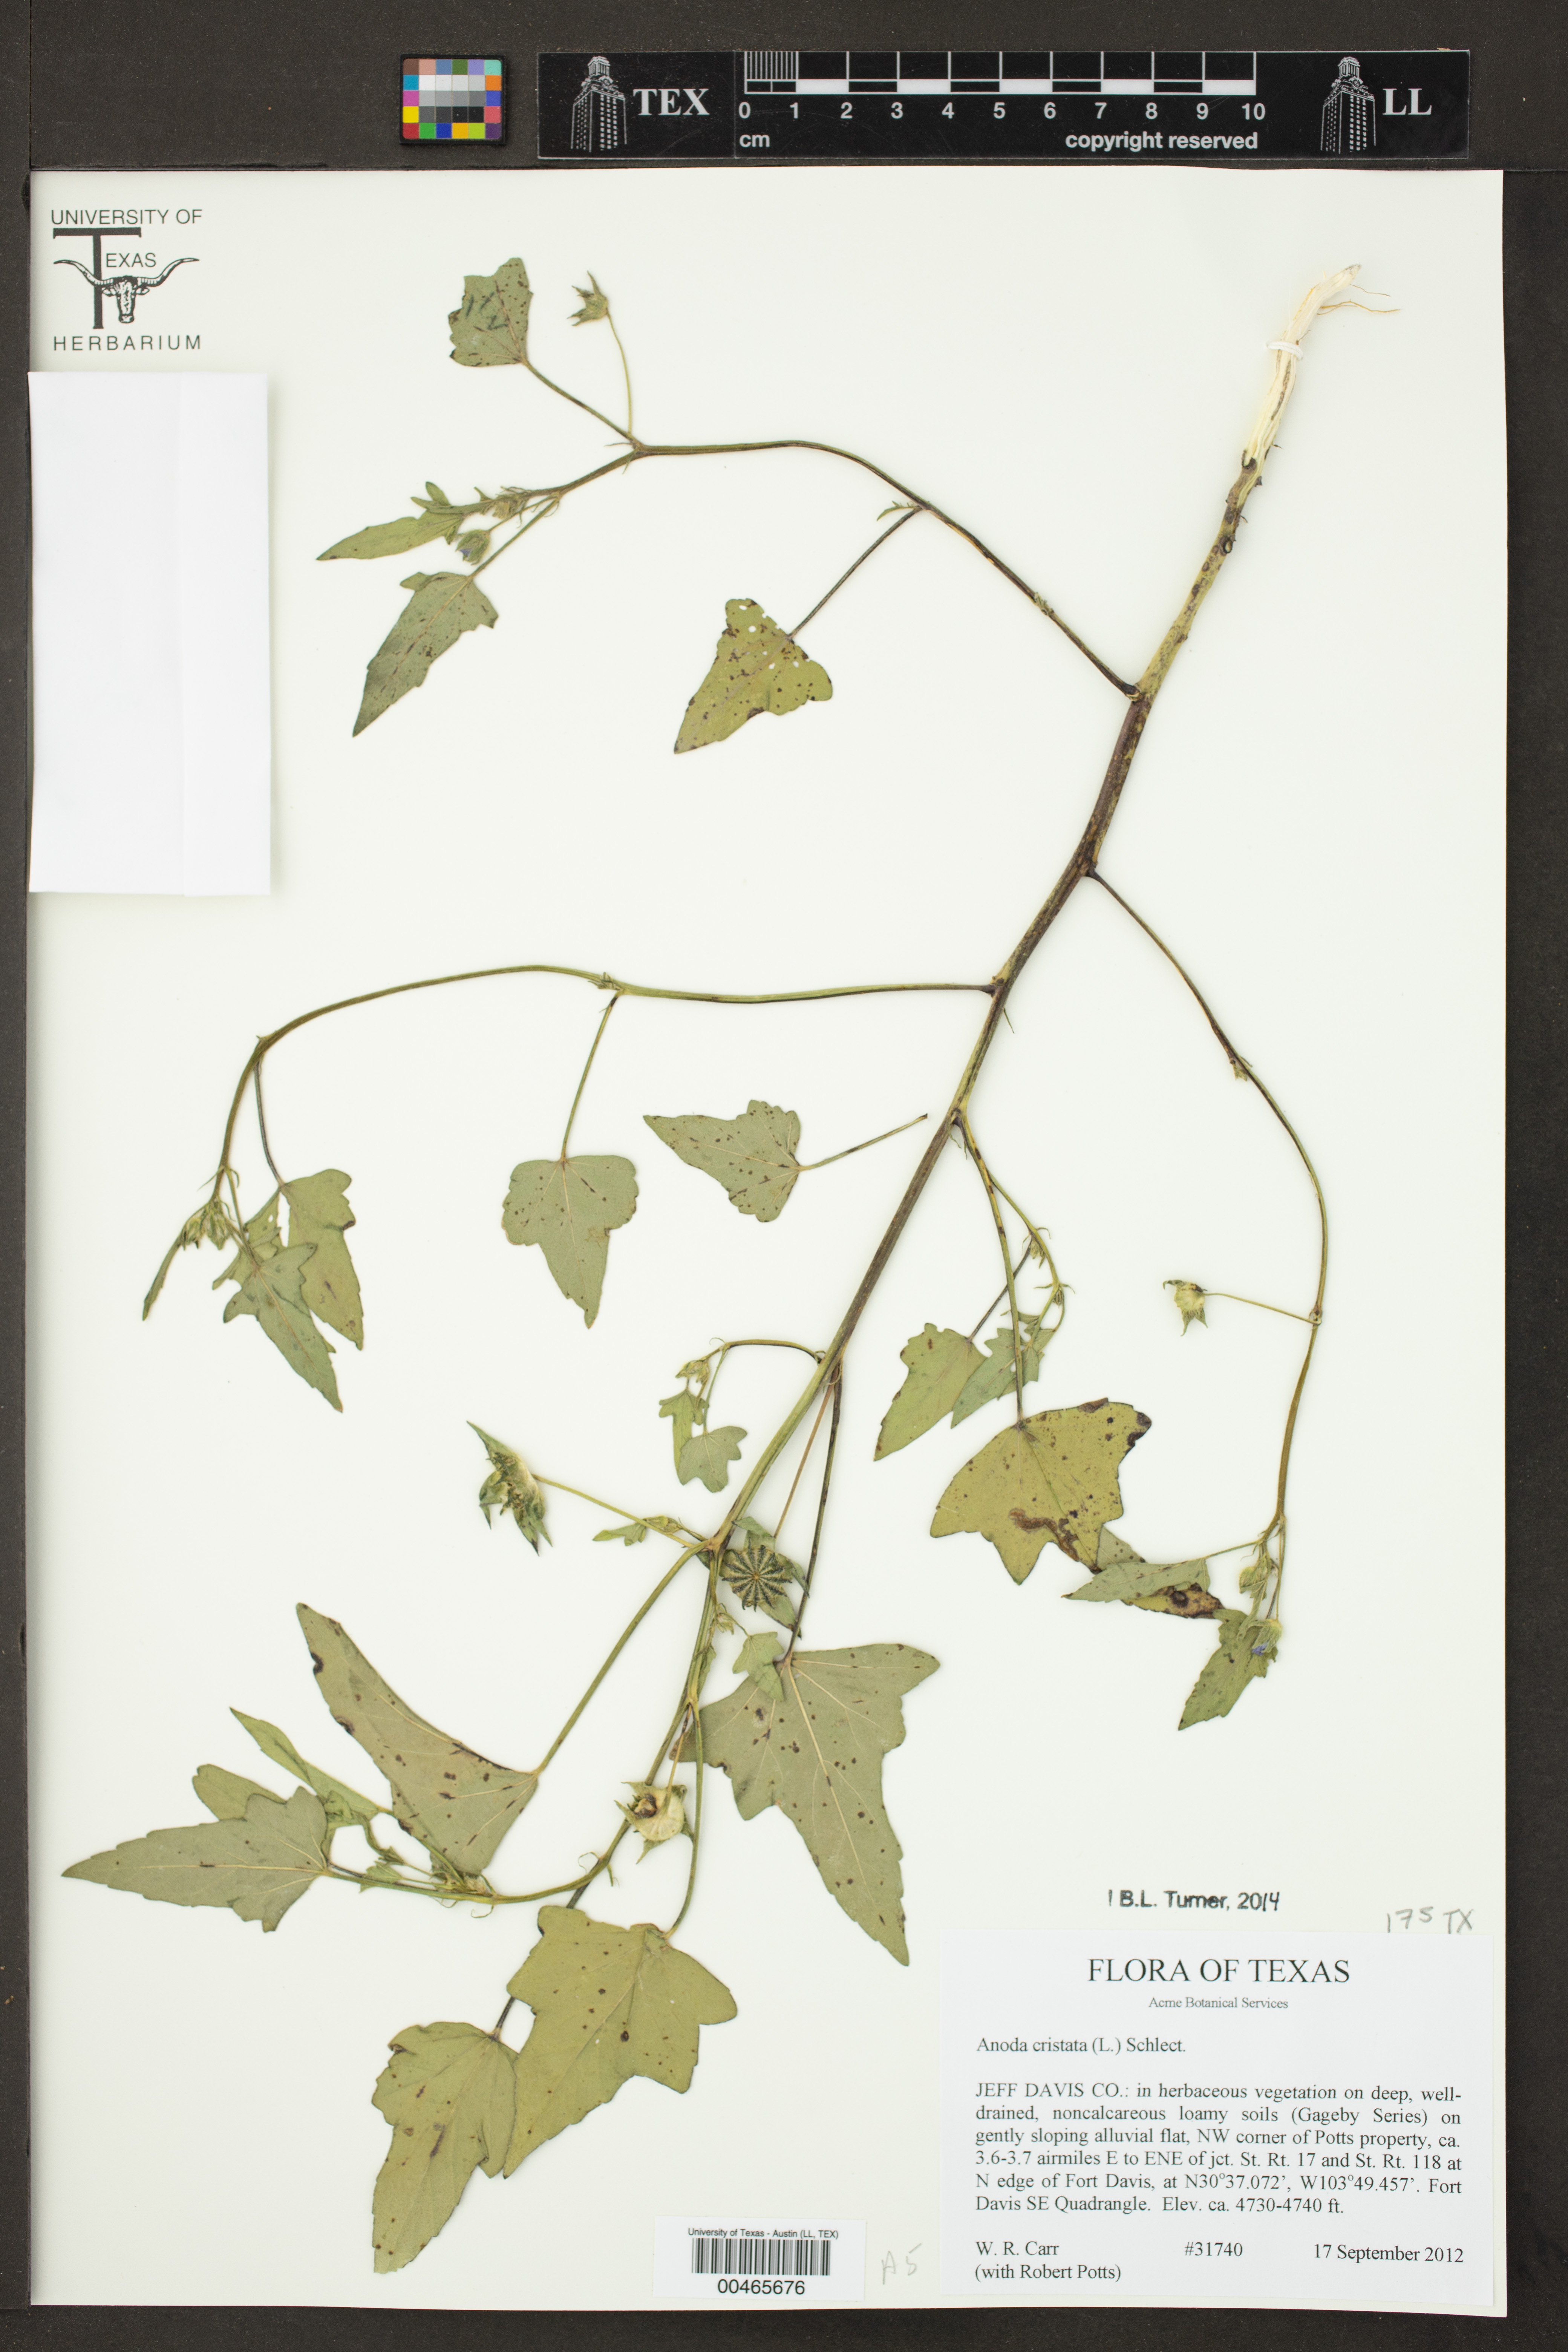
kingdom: Plantae
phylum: Tracheophyta
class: Magnoliopsida
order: Malvales
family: Malvaceae
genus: Anoda
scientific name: Anoda cristata
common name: Spurred anoda
